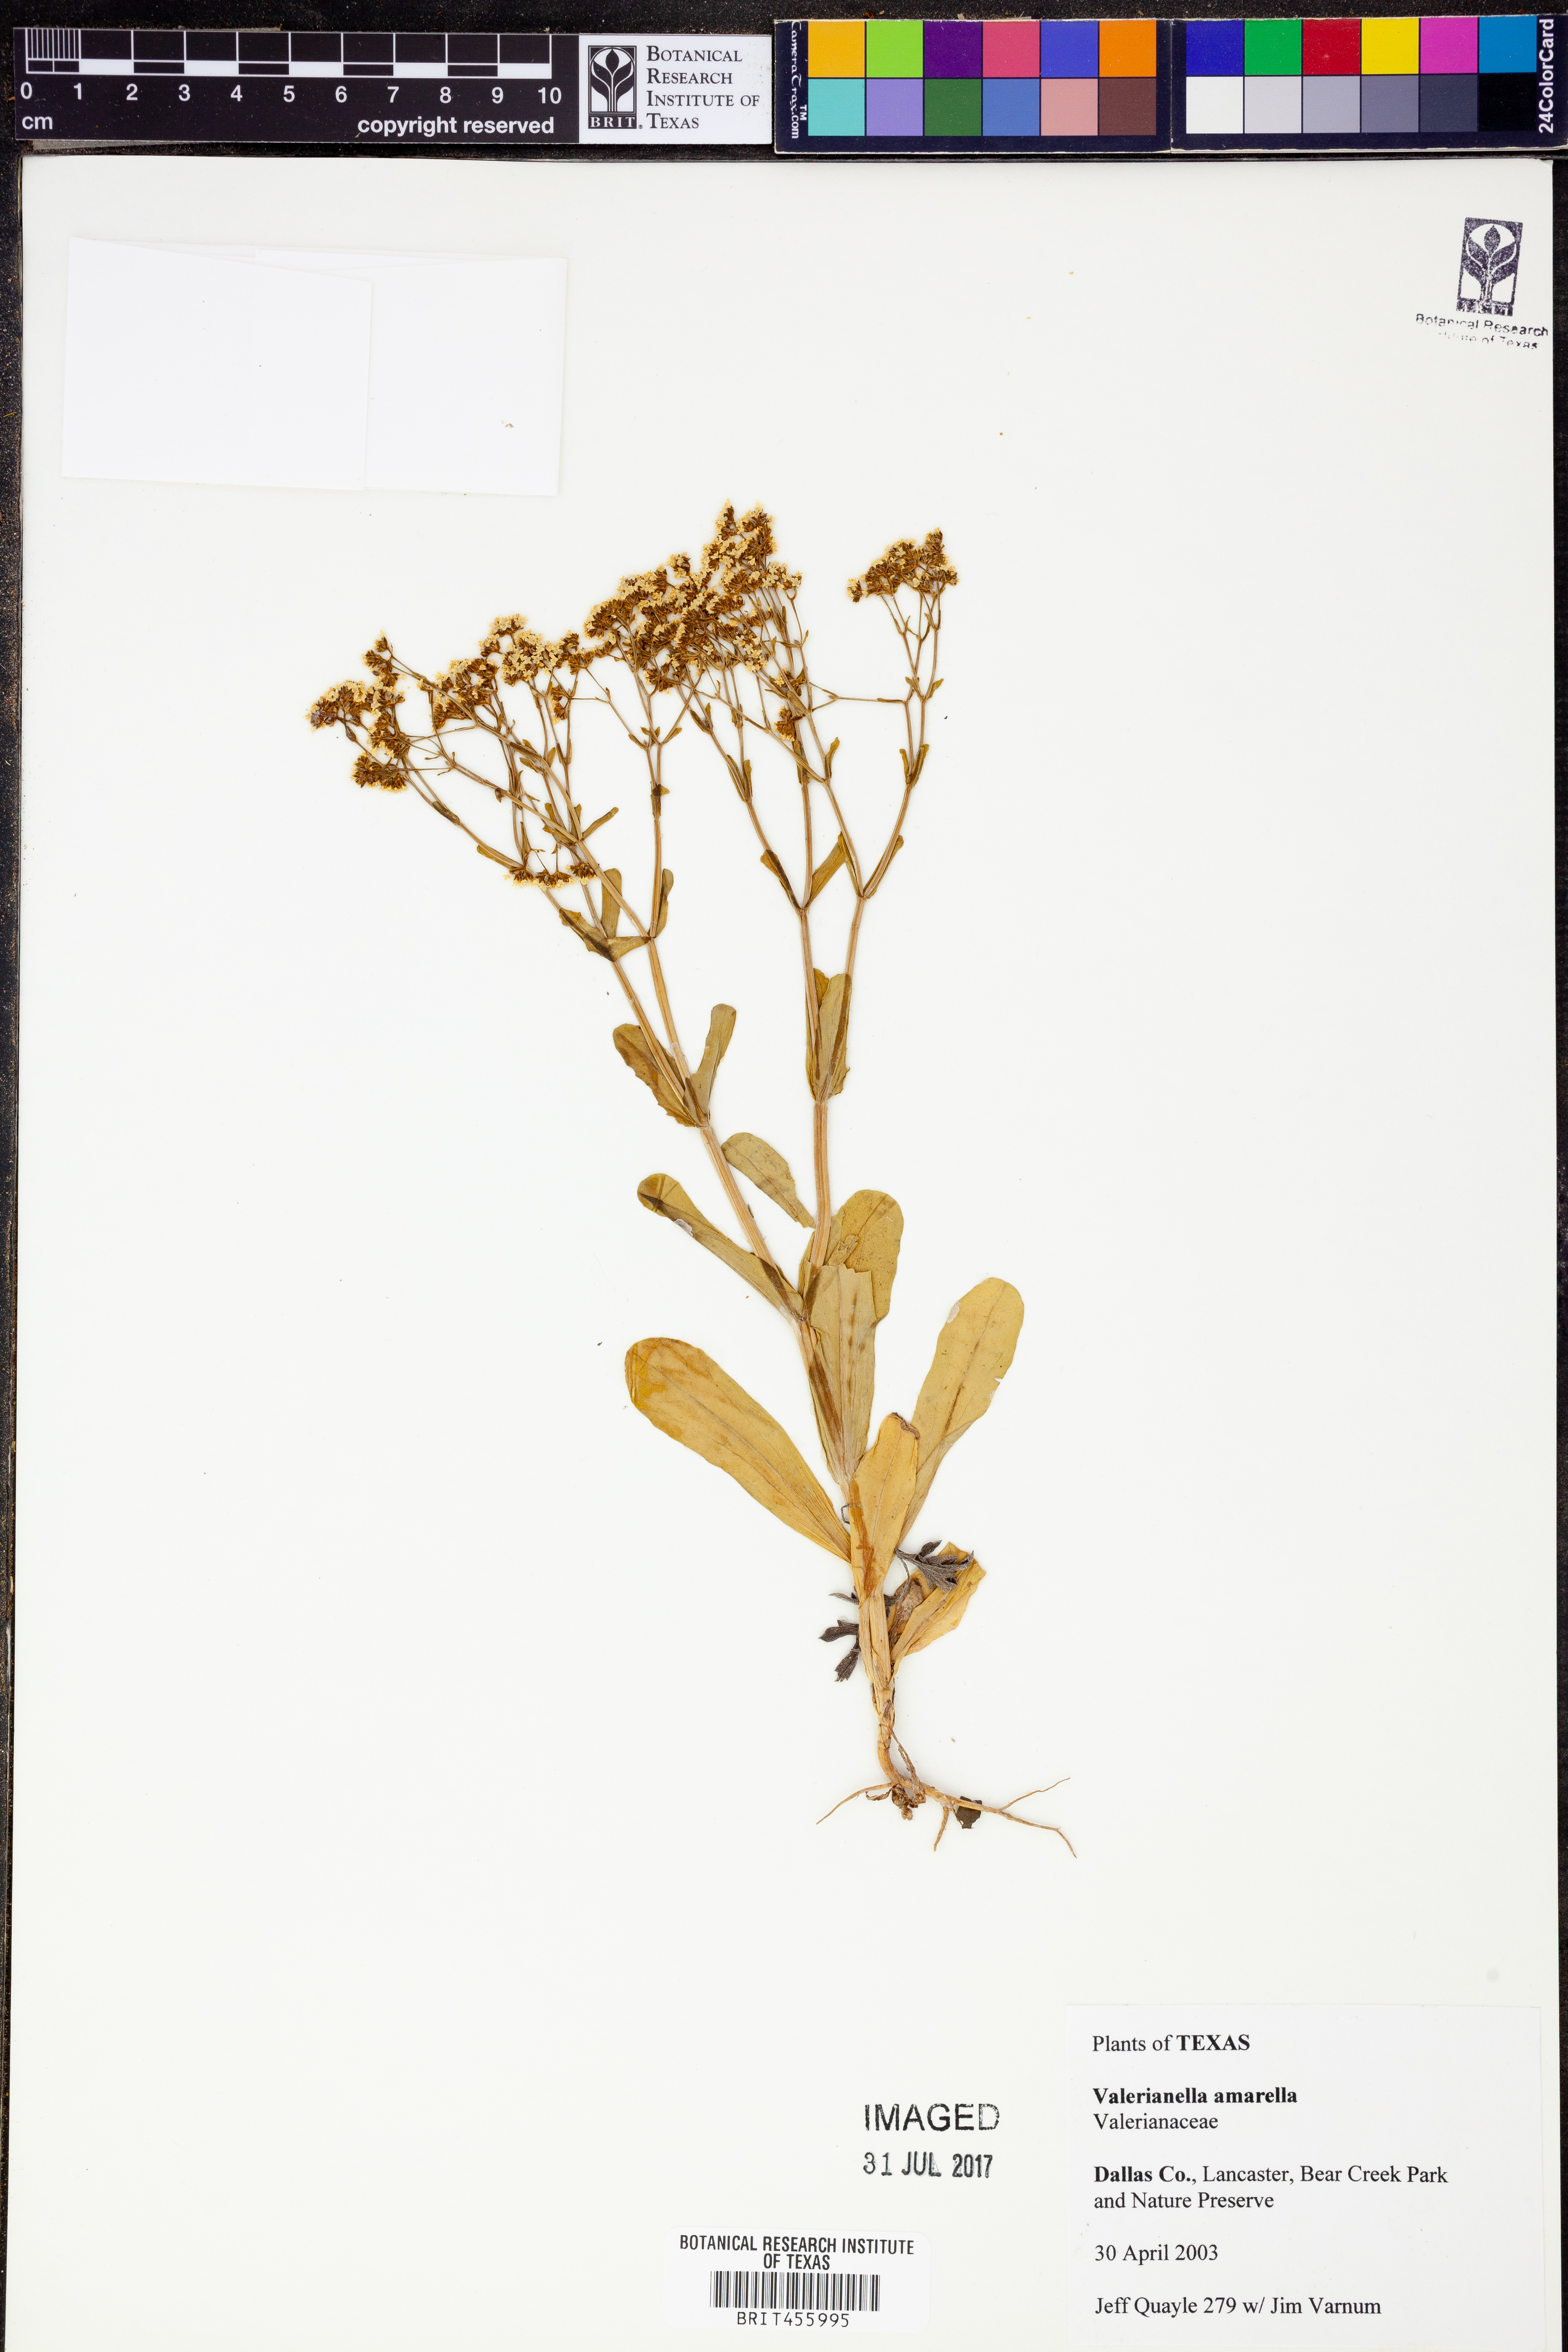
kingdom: Plantae
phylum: Tracheophyta
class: Magnoliopsida
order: Dipsacales
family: Caprifoliaceae
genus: Valerianella
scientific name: Valerianella amarella
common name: Hariy cornsalad
